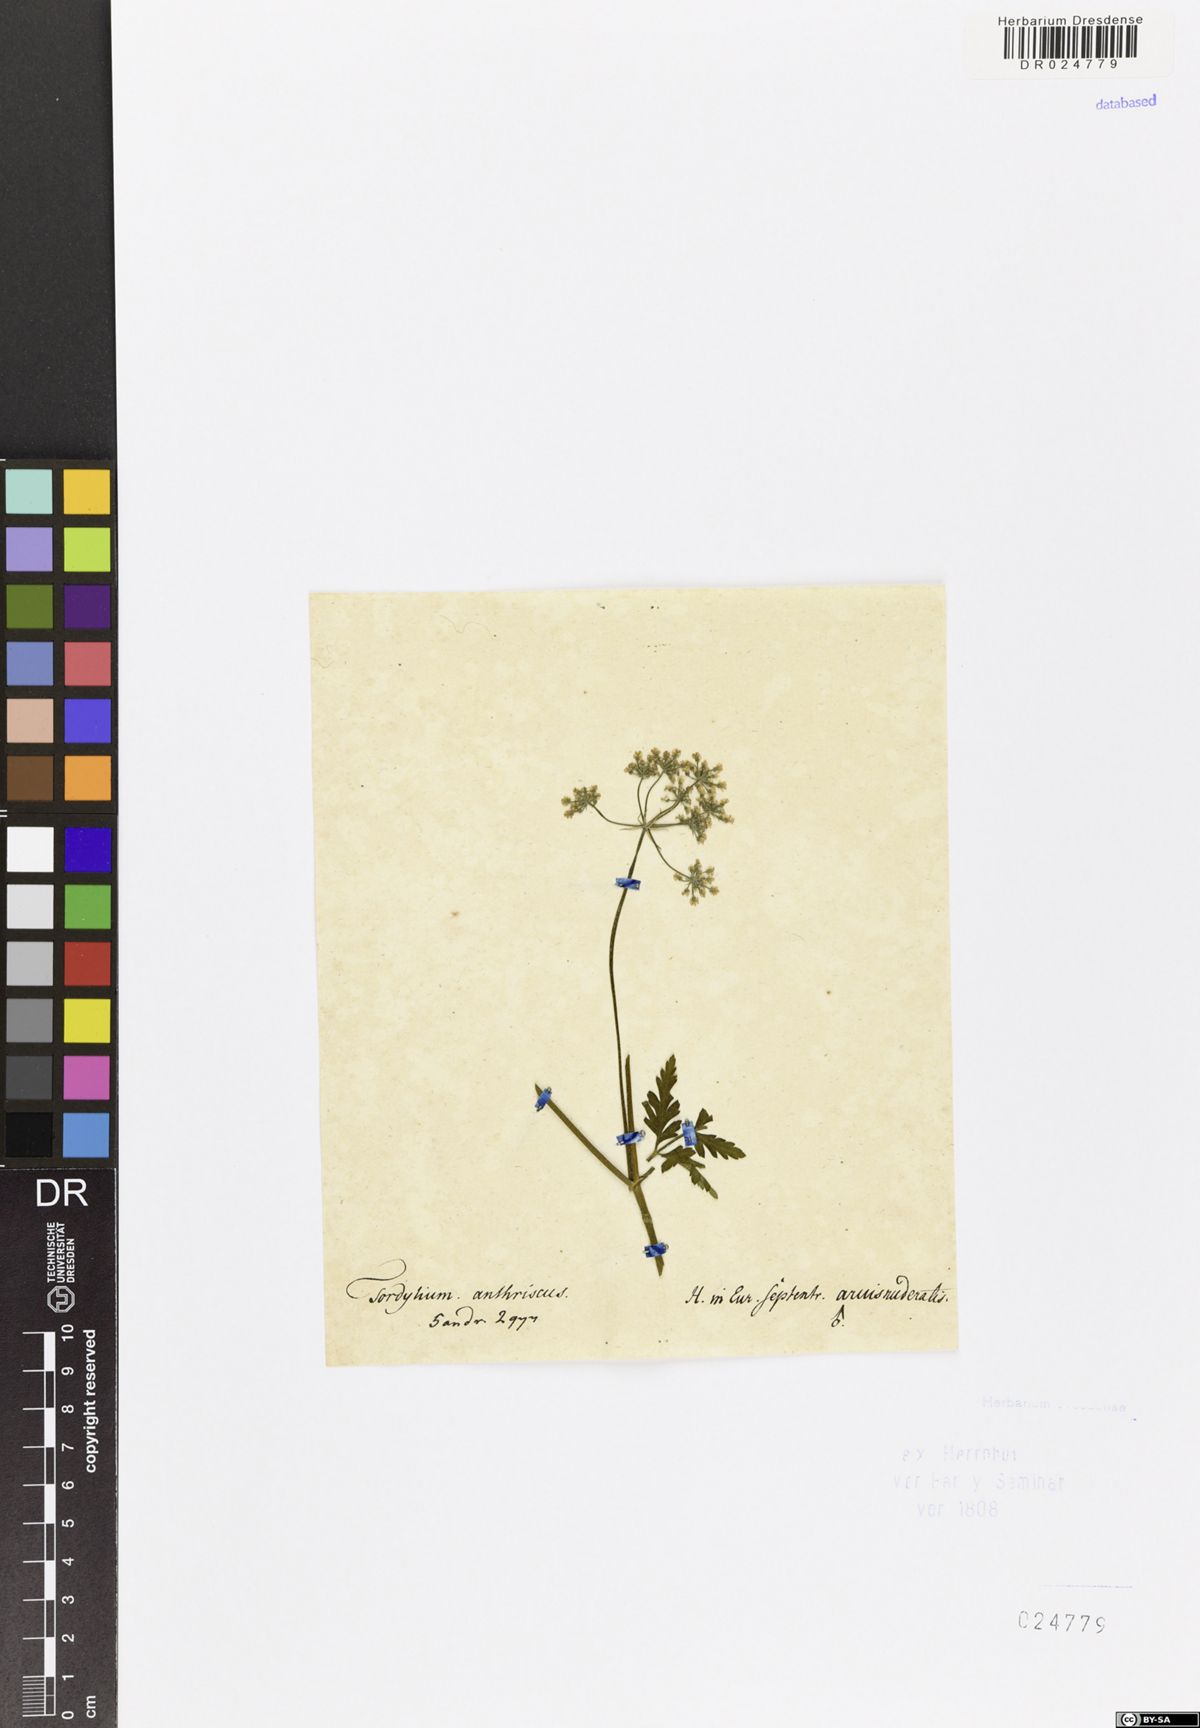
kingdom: Plantae
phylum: Tracheophyta
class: Magnoliopsida
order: Apiales
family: Apiaceae
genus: Torilis
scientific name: Torilis japonica
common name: Upright hedge-parsley
